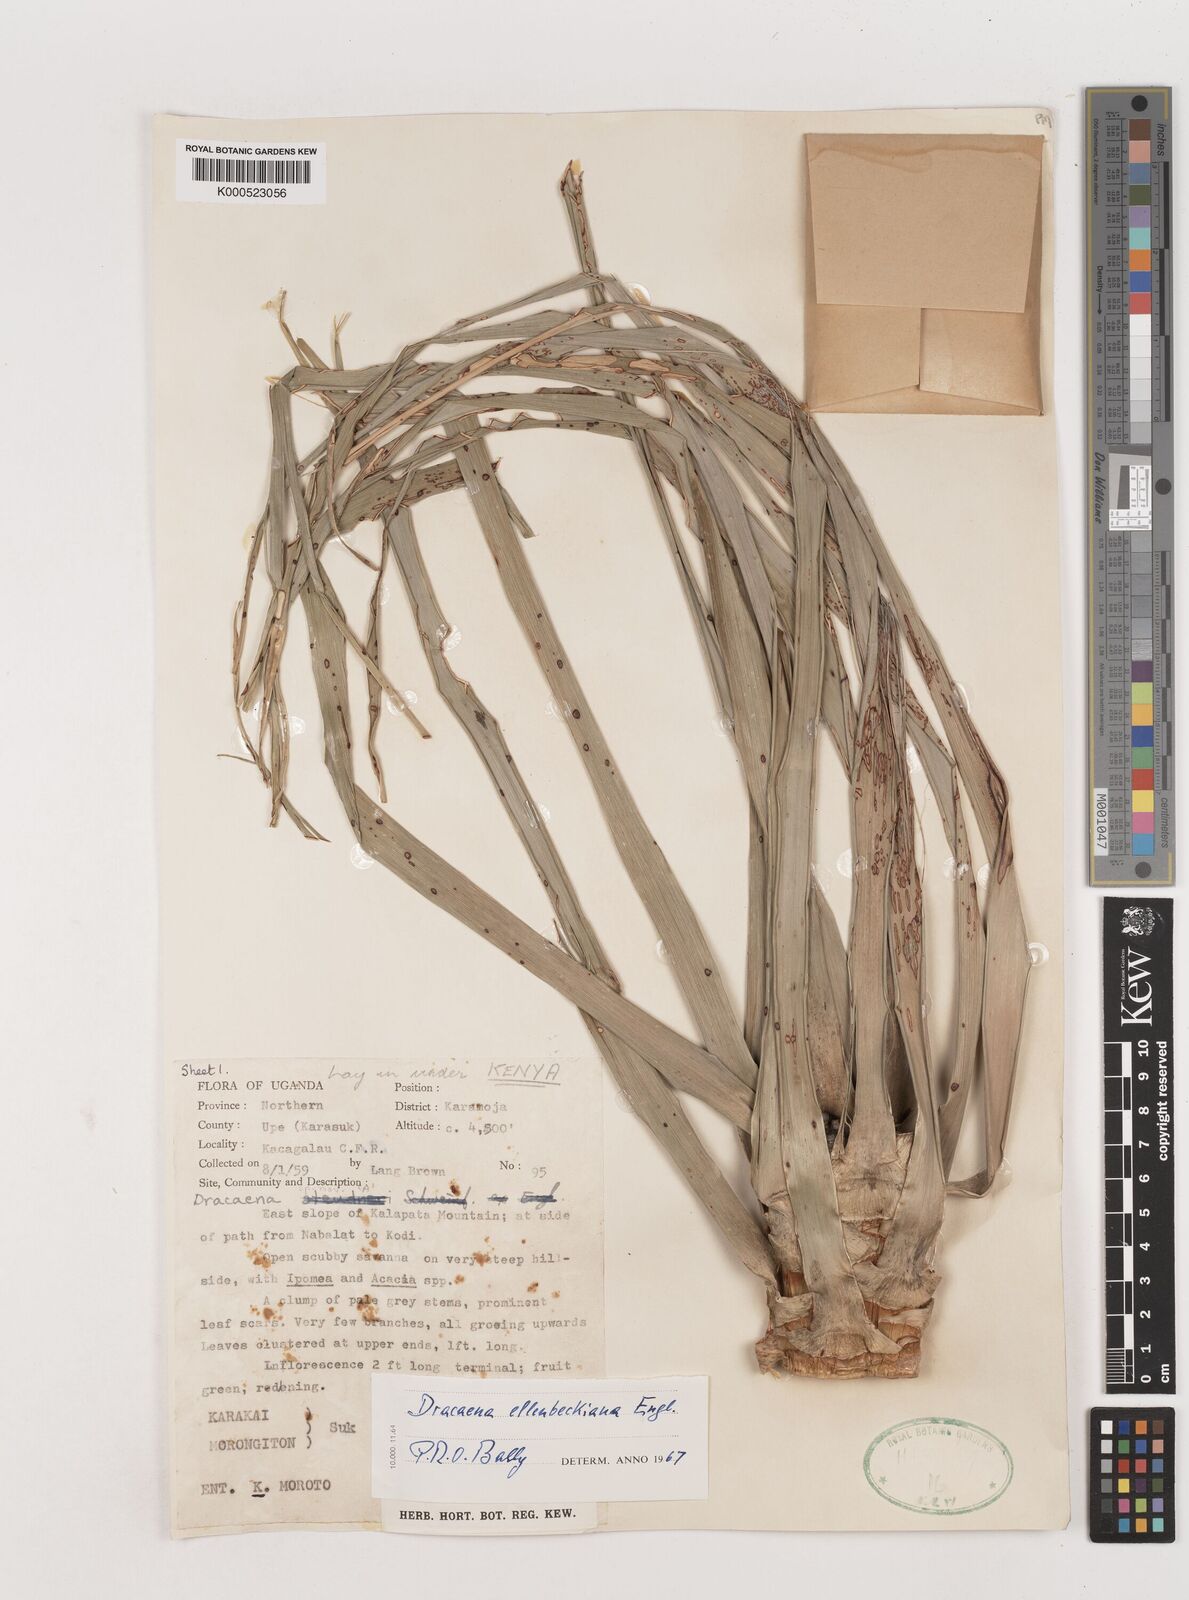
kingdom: Plantae
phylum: Tracheophyta
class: Liliopsida
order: Asparagales
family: Asparagaceae
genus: Dracaena
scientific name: Dracaena ellenbeckiana
